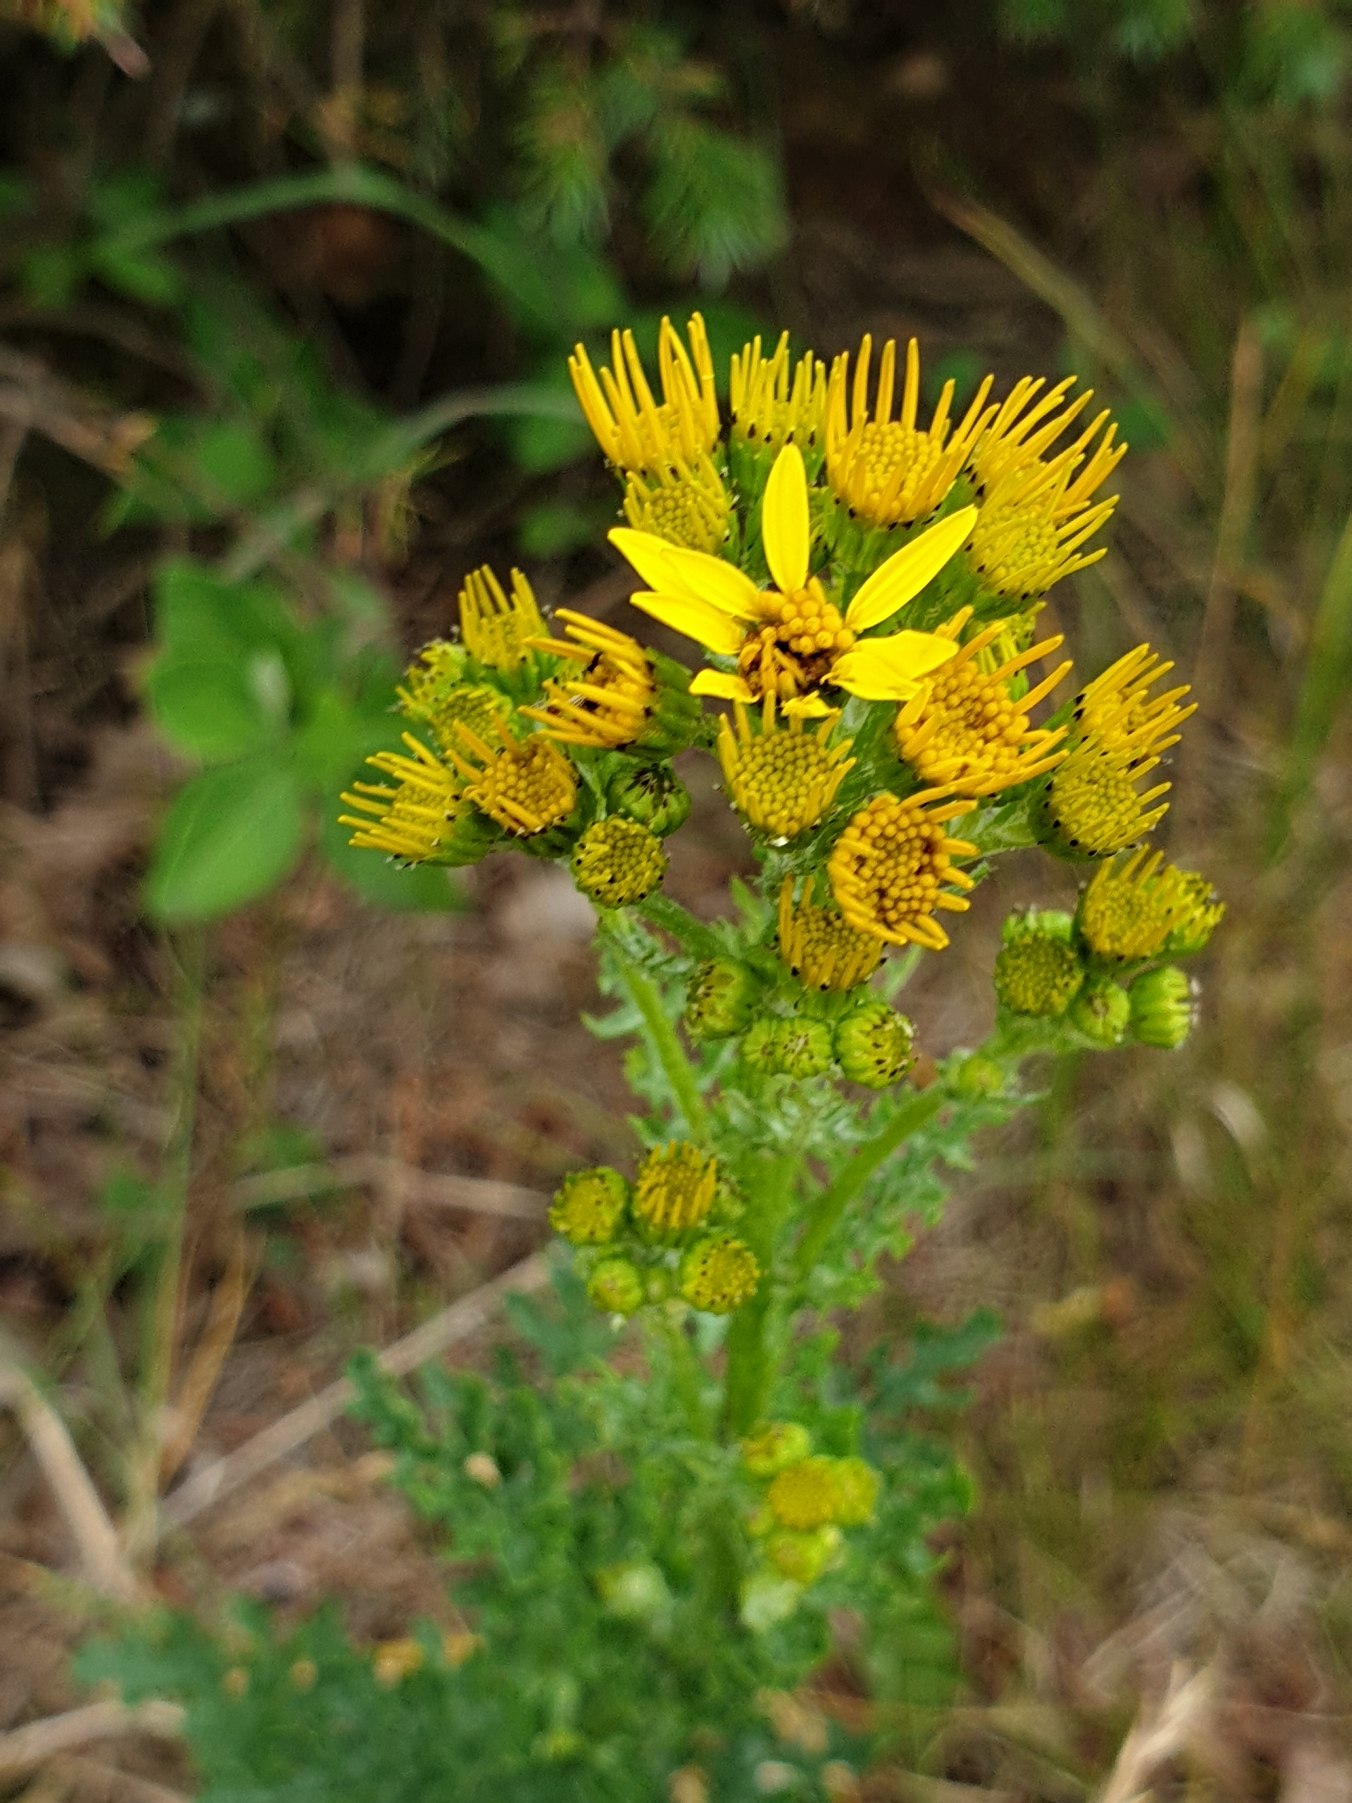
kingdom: Plantae
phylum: Tracheophyta
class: Magnoliopsida
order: Asterales
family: Asteraceae
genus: Jacobaea
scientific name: Jacobaea vulgaris
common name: Eng-brandbæger
